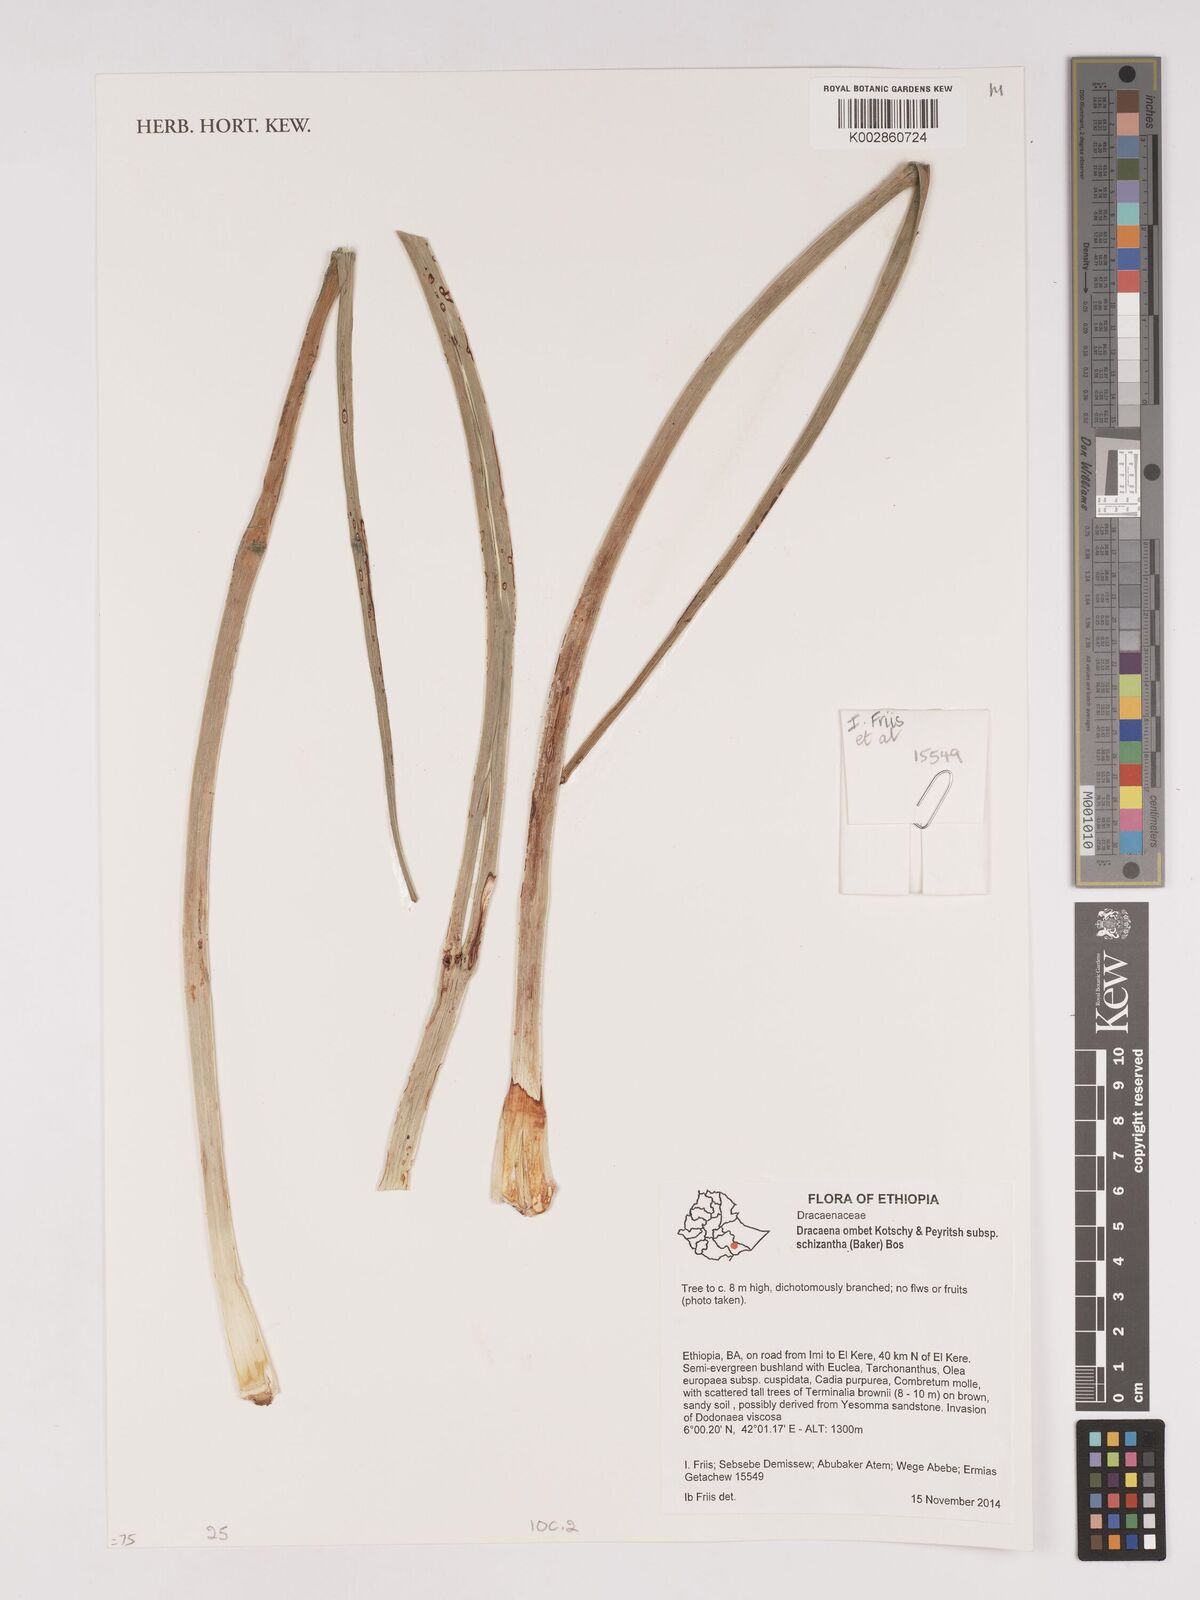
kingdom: Plantae
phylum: Tracheophyta
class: Liliopsida
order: Asparagales
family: Asparagaceae
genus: Dracaena
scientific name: Dracaena ombet
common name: Gabal elba dragon tree
